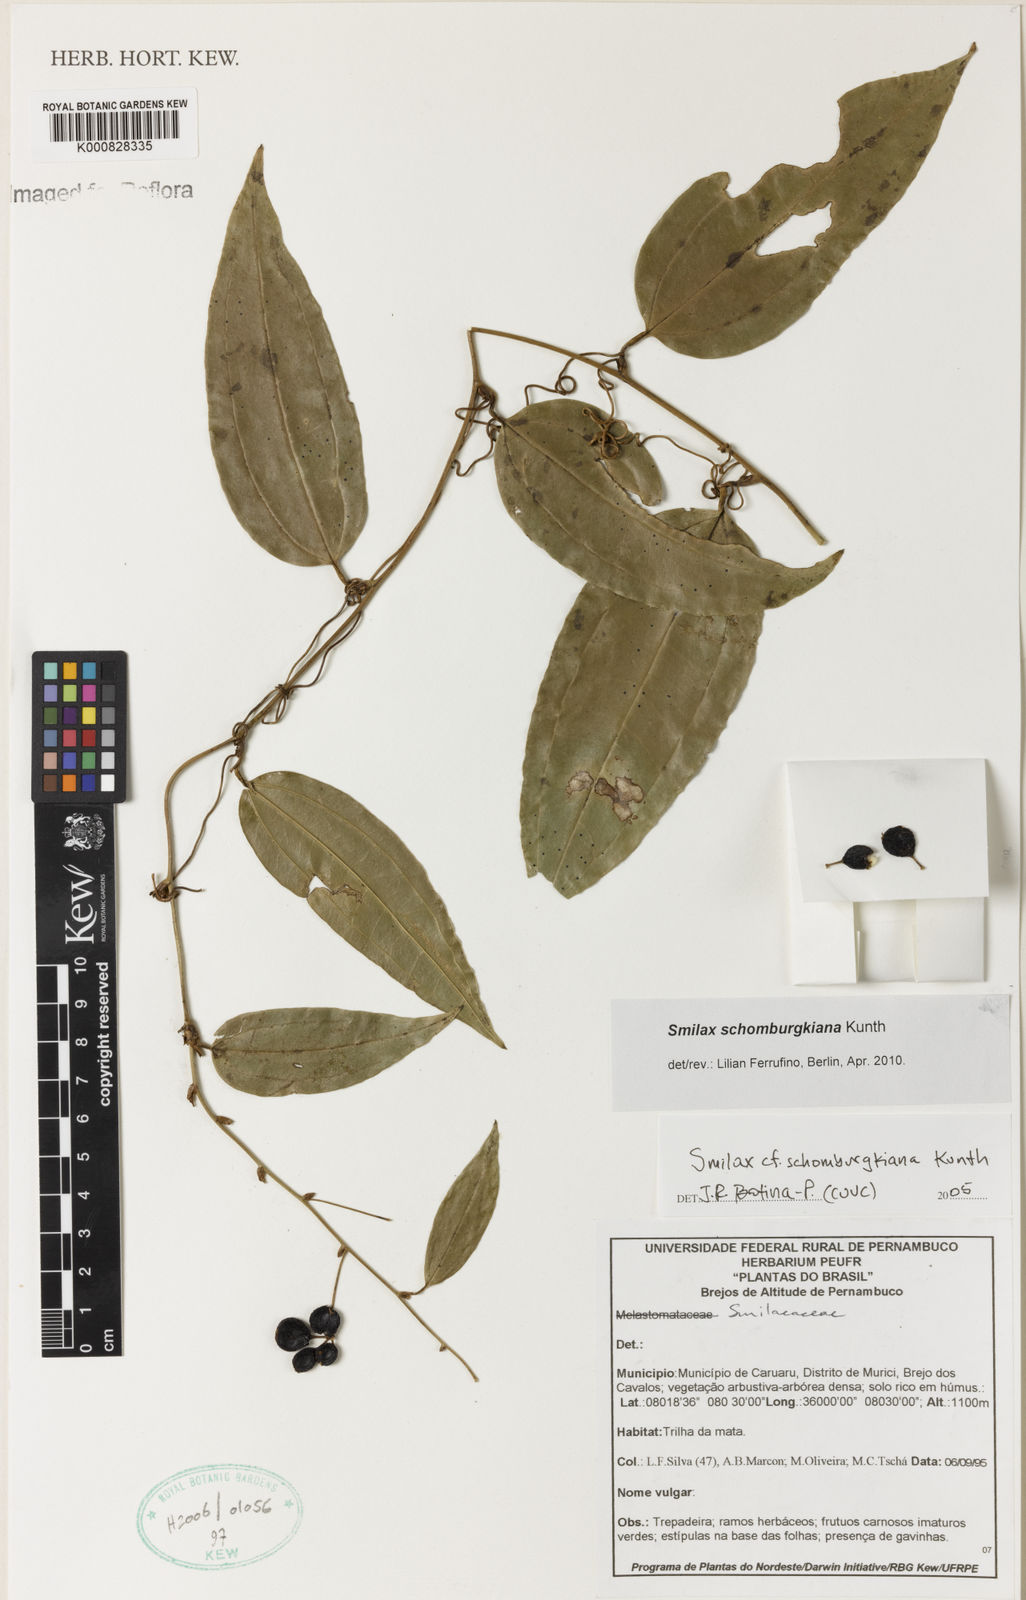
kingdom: Plantae
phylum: Tracheophyta
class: Liliopsida
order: Liliales
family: Smilacaceae
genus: Smilax
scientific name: Smilax schomburgkiana
